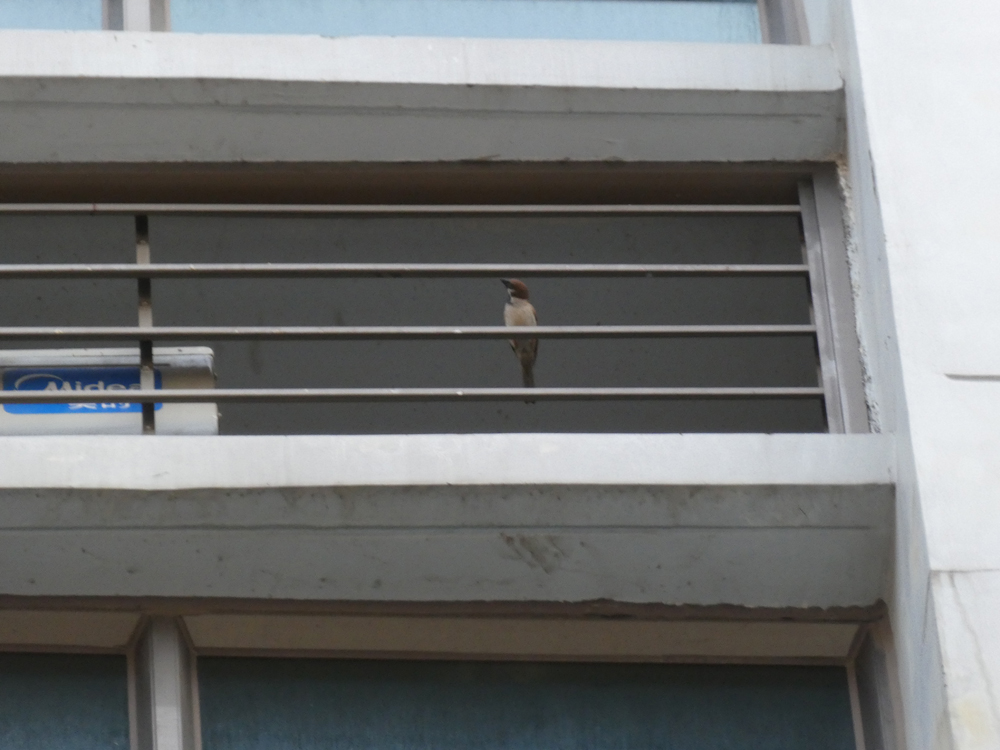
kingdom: Animalia
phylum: Chordata
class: Aves
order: Passeriformes
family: Passeridae
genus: Passer
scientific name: Passer montanus
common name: Eurasian tree sparrow
